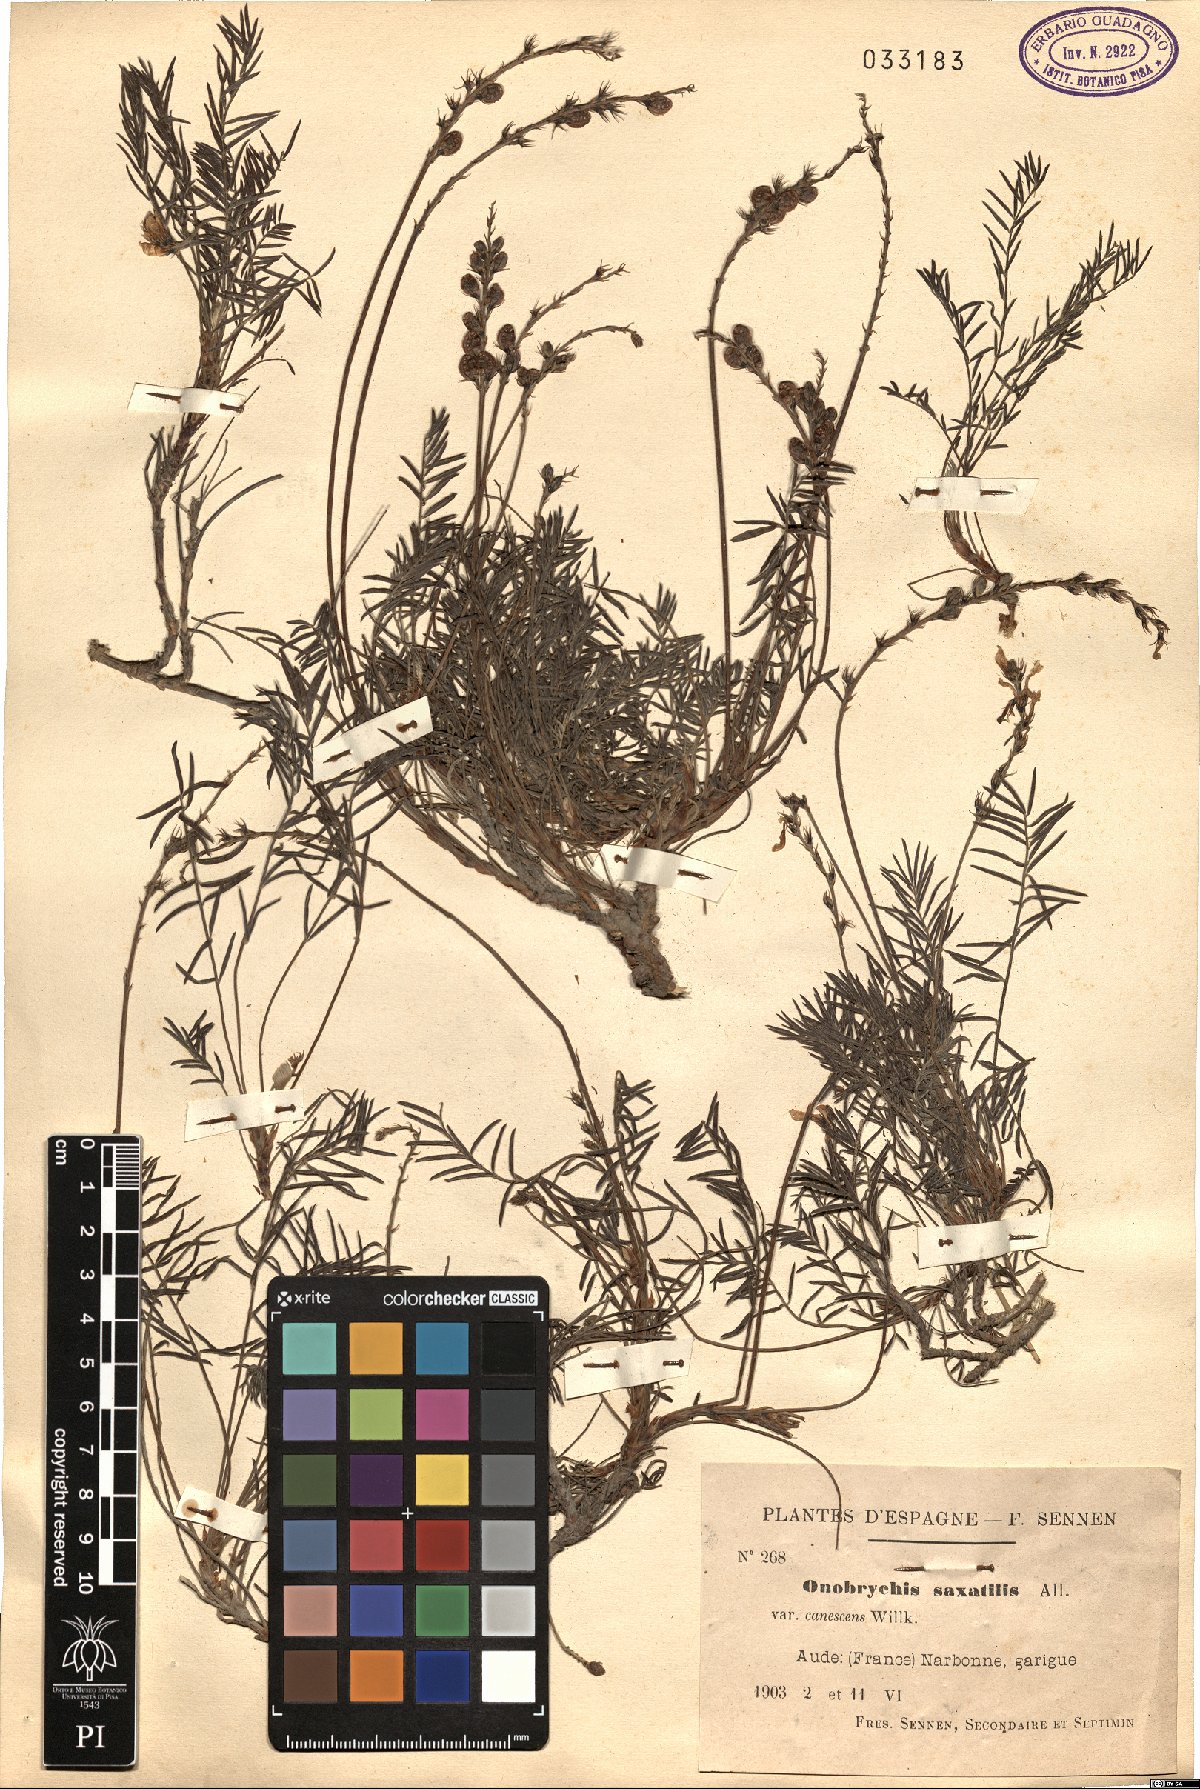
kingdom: Plantae
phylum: Tracheophyta
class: Magnoliopsida
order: Fabales
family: Fabaceae
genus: Onobrychis
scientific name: Onobrychis saxatilis
